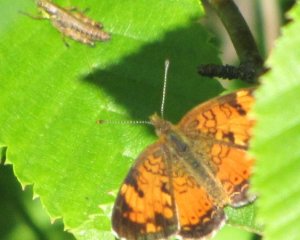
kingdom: Animalia
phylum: Arthropoda
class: Insecta
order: Lepidoptera
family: Nymphalidae
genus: Phyciodes
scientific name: Phyciodes tharos
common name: Northern Crescent
